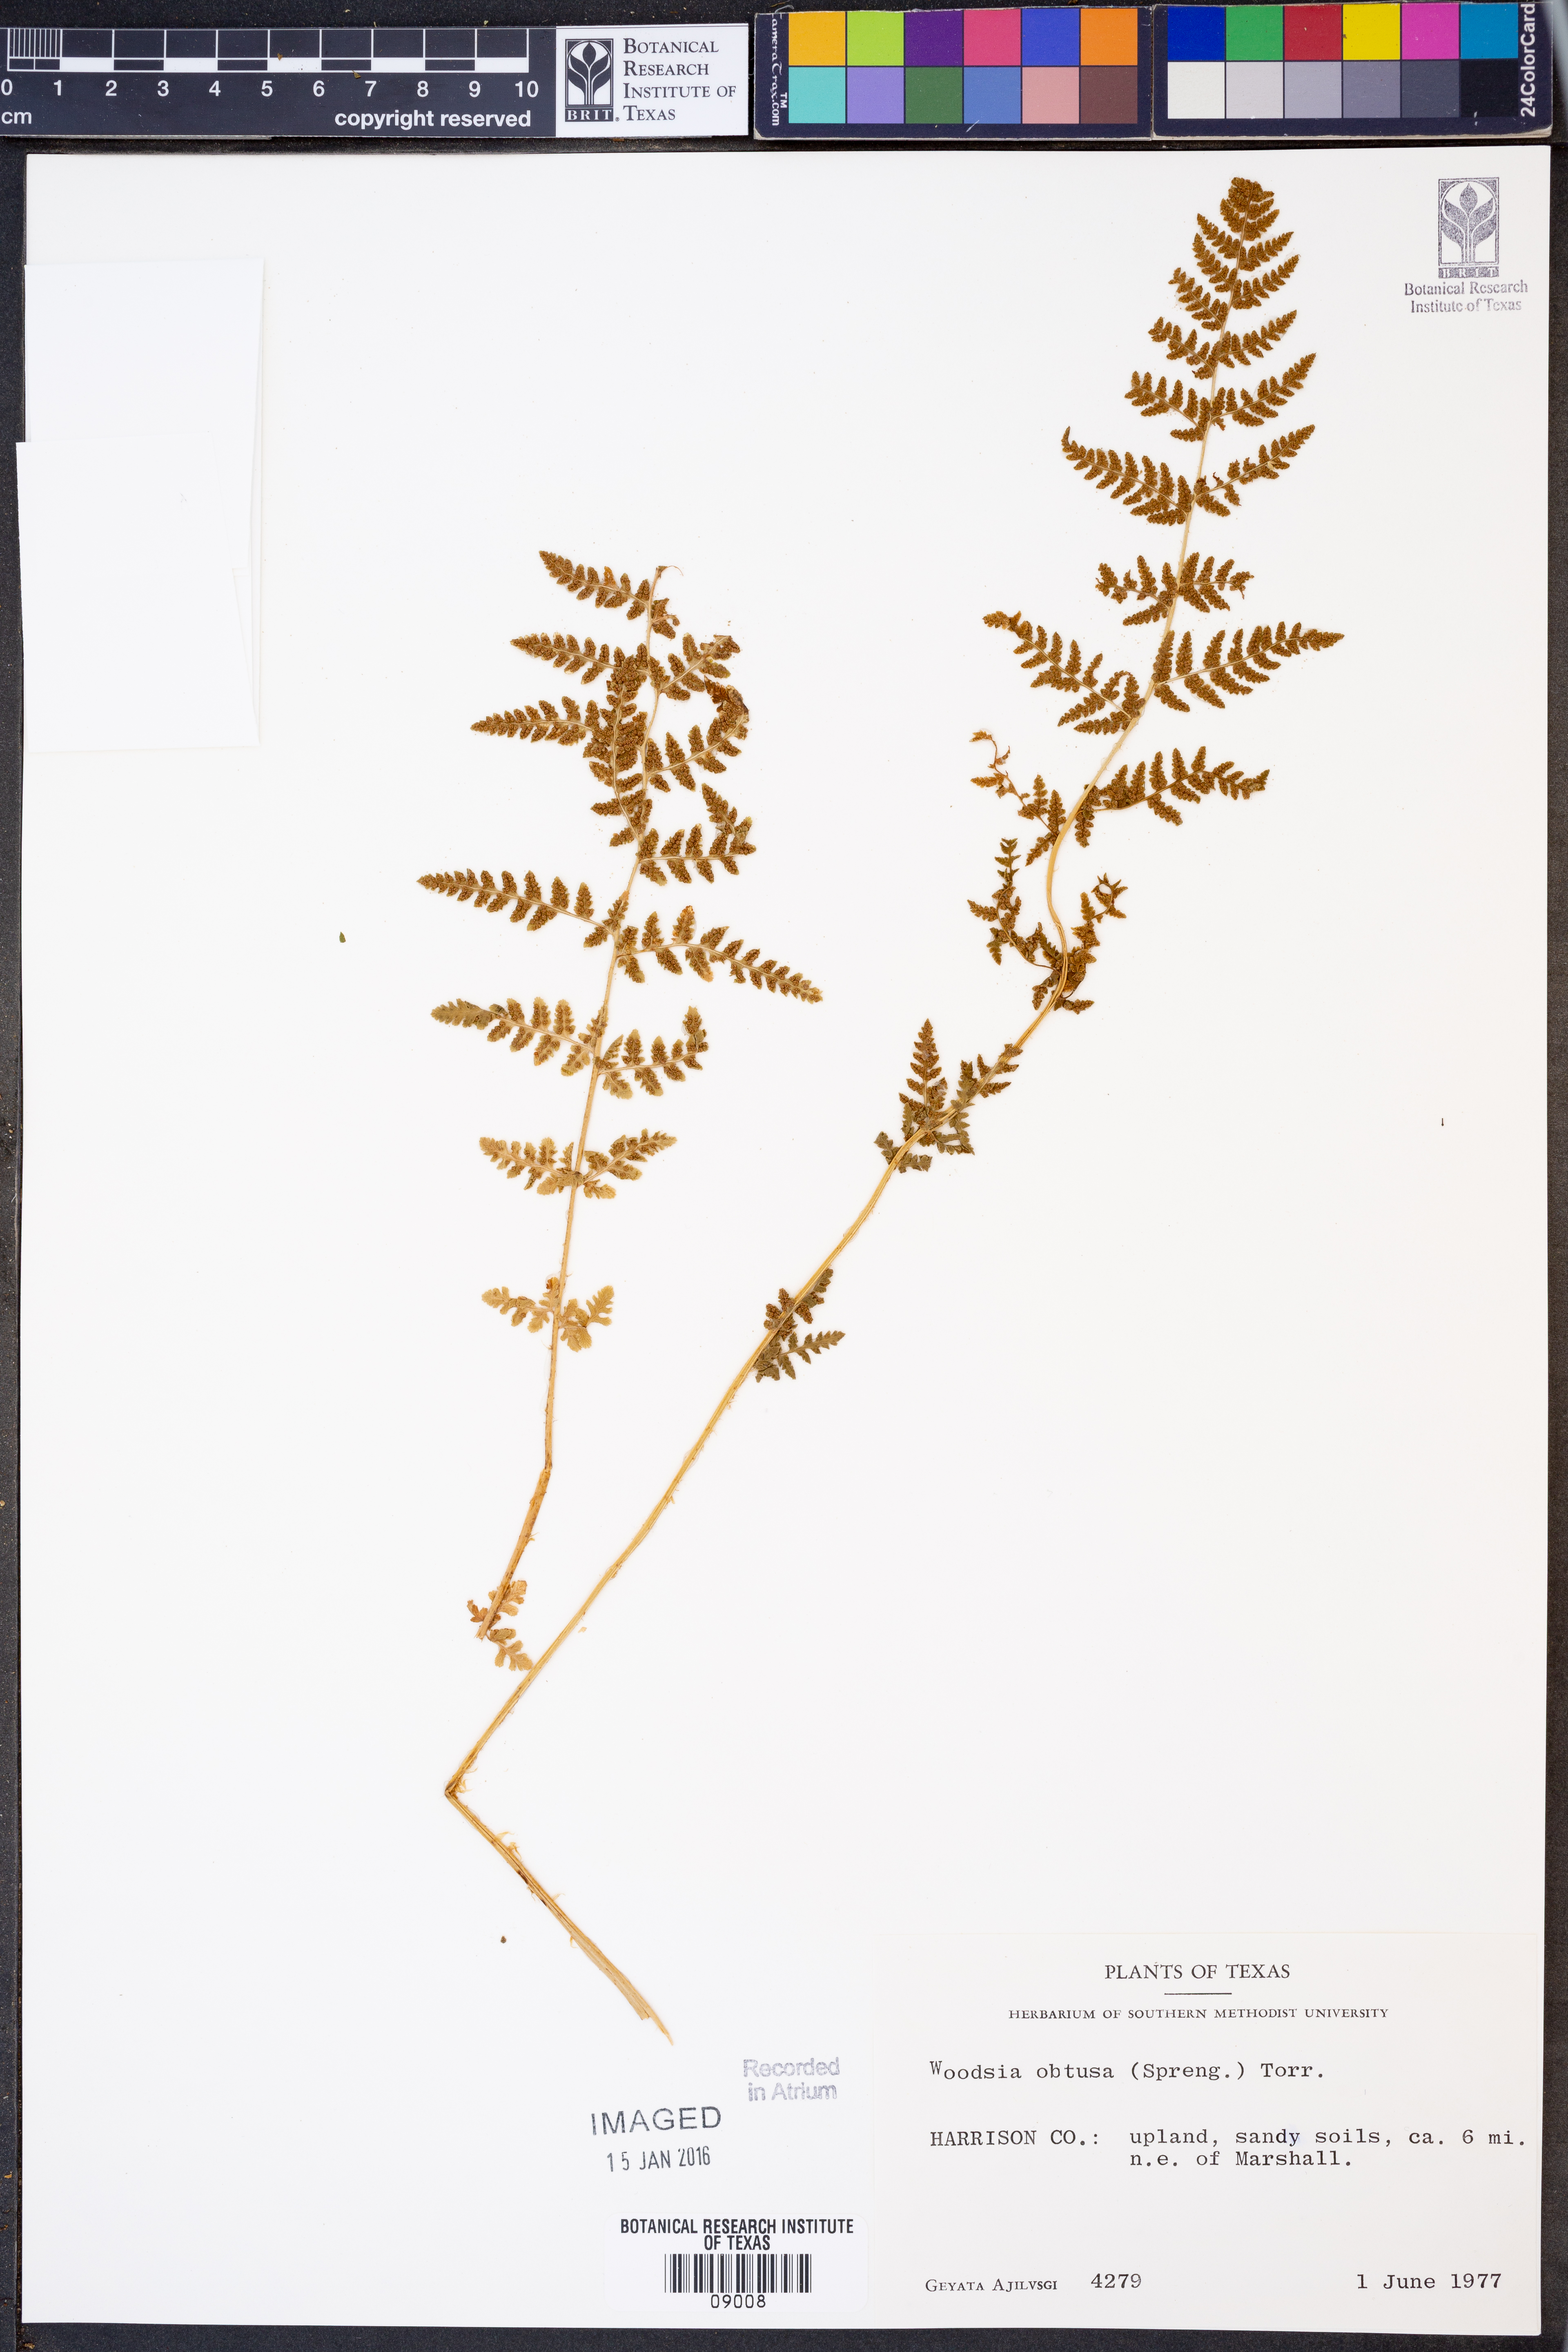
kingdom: Plantae
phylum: Tracheophyta
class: Polypodiopsida
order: Polypodiales
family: Woodsiaceae
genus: Physematium
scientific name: Physematium obtusum
